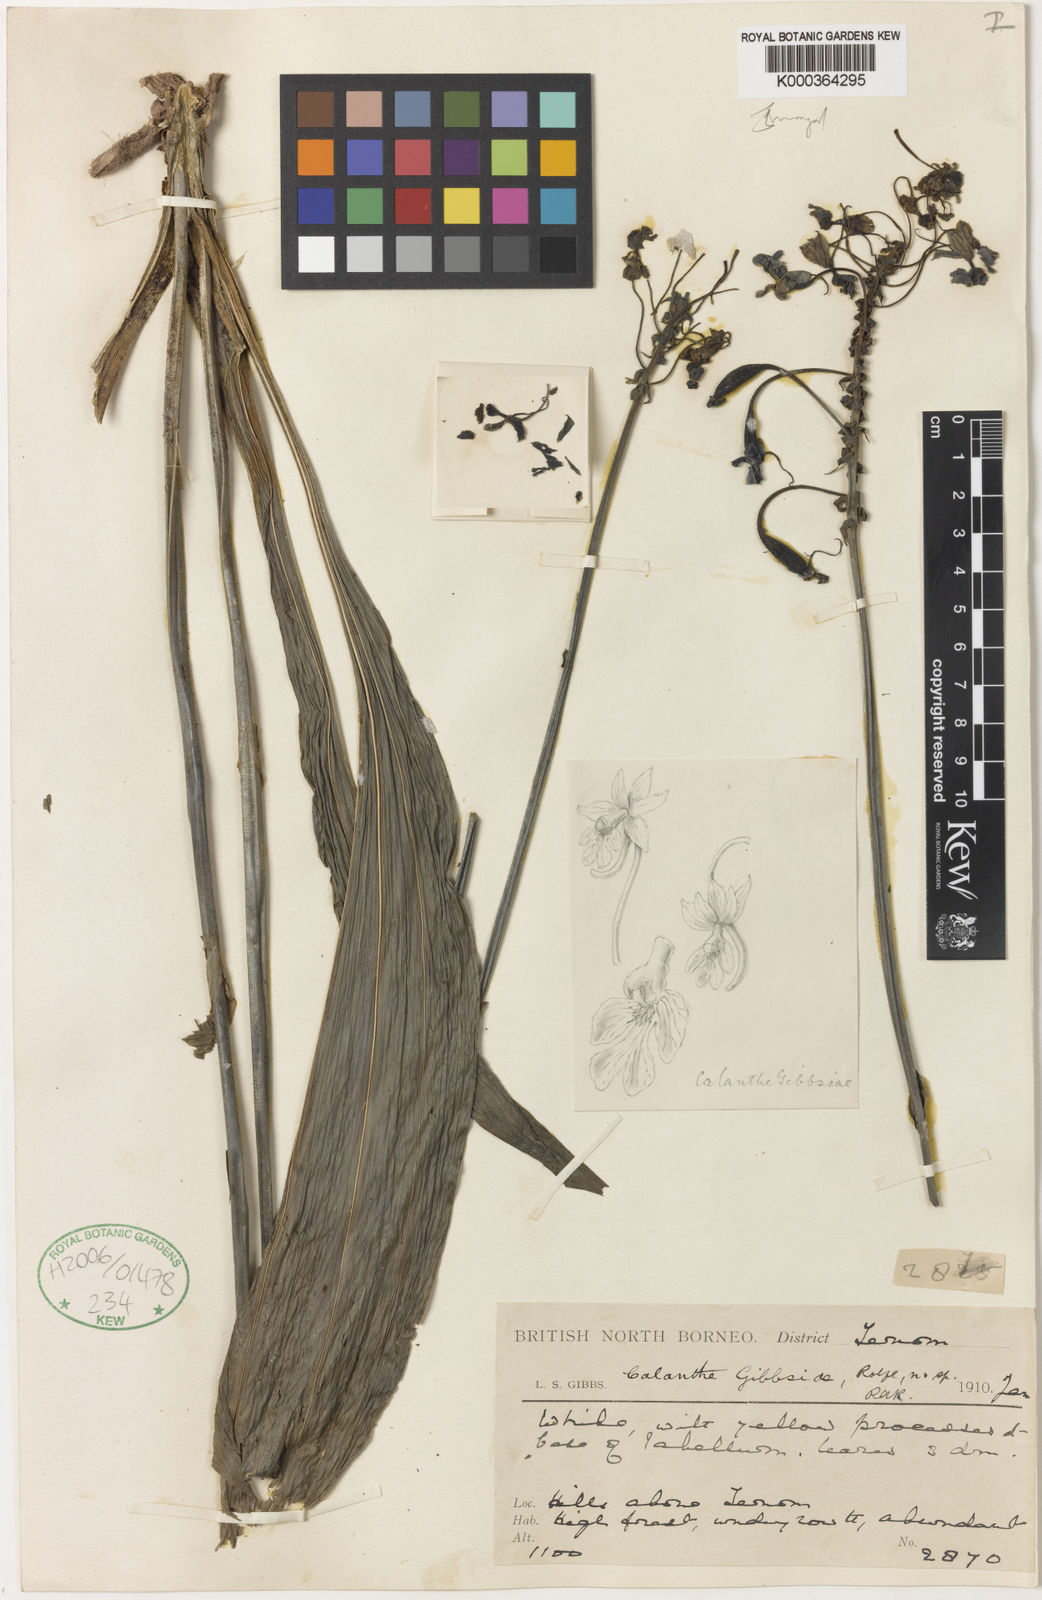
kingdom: Plantae
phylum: Tracheophyta
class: Liliopsida
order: Asparagales
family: Orchidaceae
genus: Calanthe
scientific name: Calanthe gibbsiae
